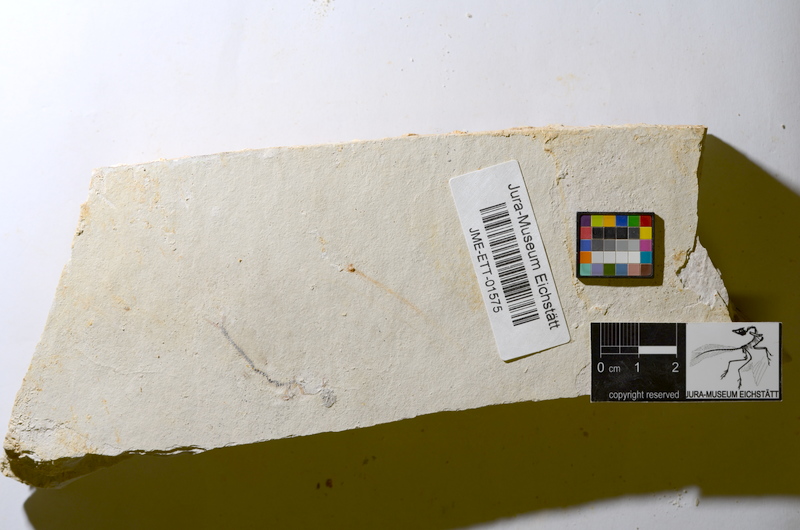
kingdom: Animalia
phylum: Chordata
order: Salmoniformes
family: Orthogonikleithridae
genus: Orthogonikleithrus
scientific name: Orthogonikleithrus hoelli
